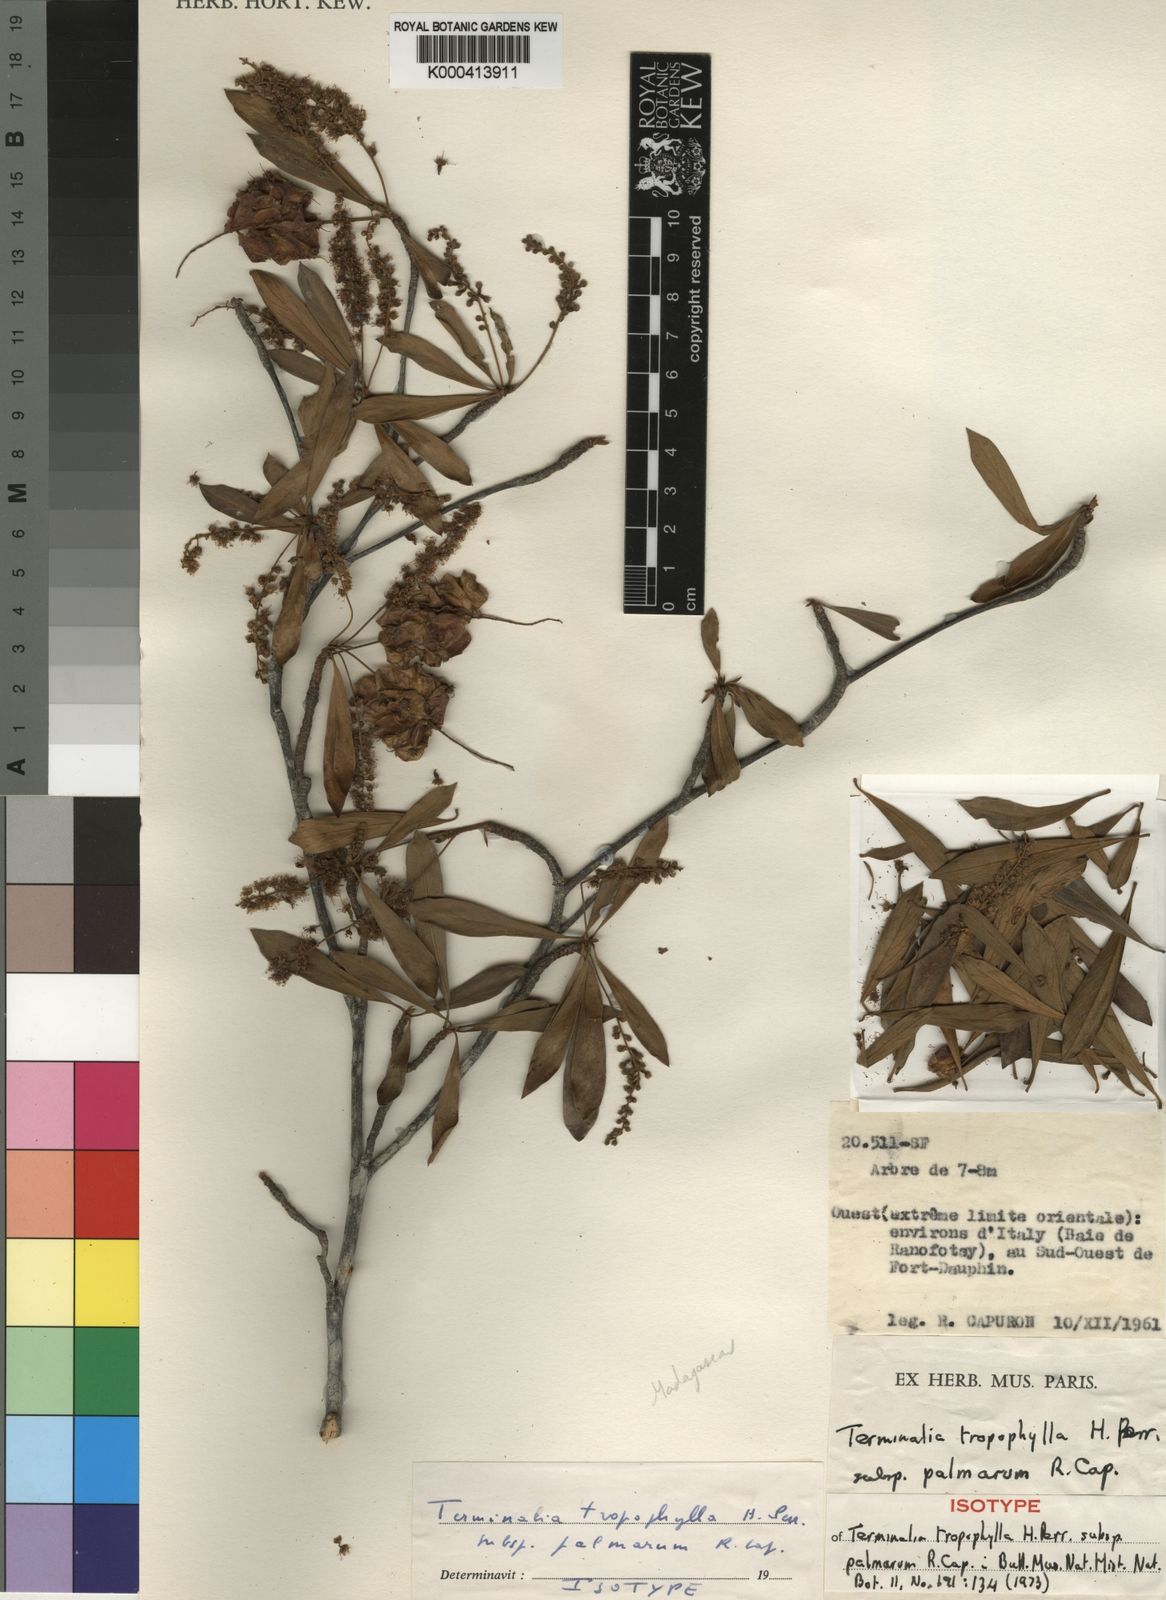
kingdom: Plantae
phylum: Tracheophyta
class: Magnoliopsida
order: Myrtales
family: Combretaceae
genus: Terminalia
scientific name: Terminalia tropophylla
